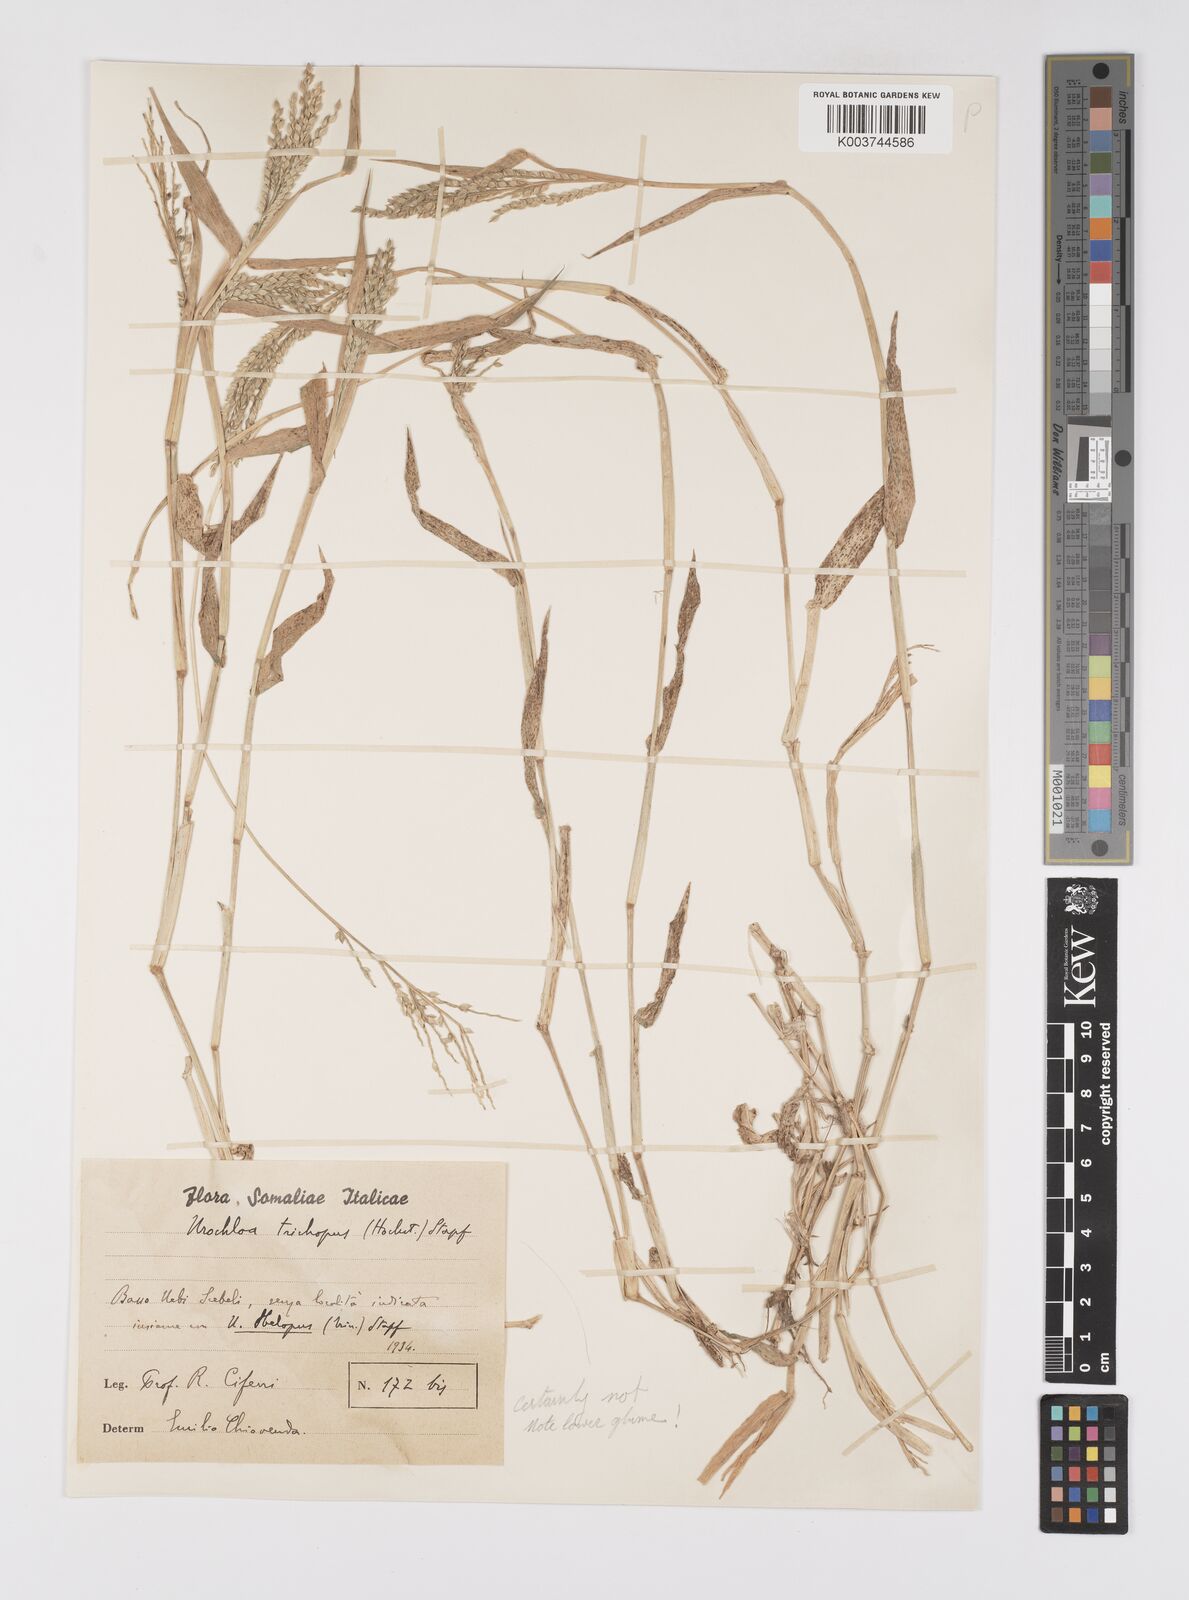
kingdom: Plantae
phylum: Tracheophyta
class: Liliopsida
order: Poales
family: Poaceae
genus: Urochloa
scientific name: Urochloa panicoides
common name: Sharp-flowered signal-grass
